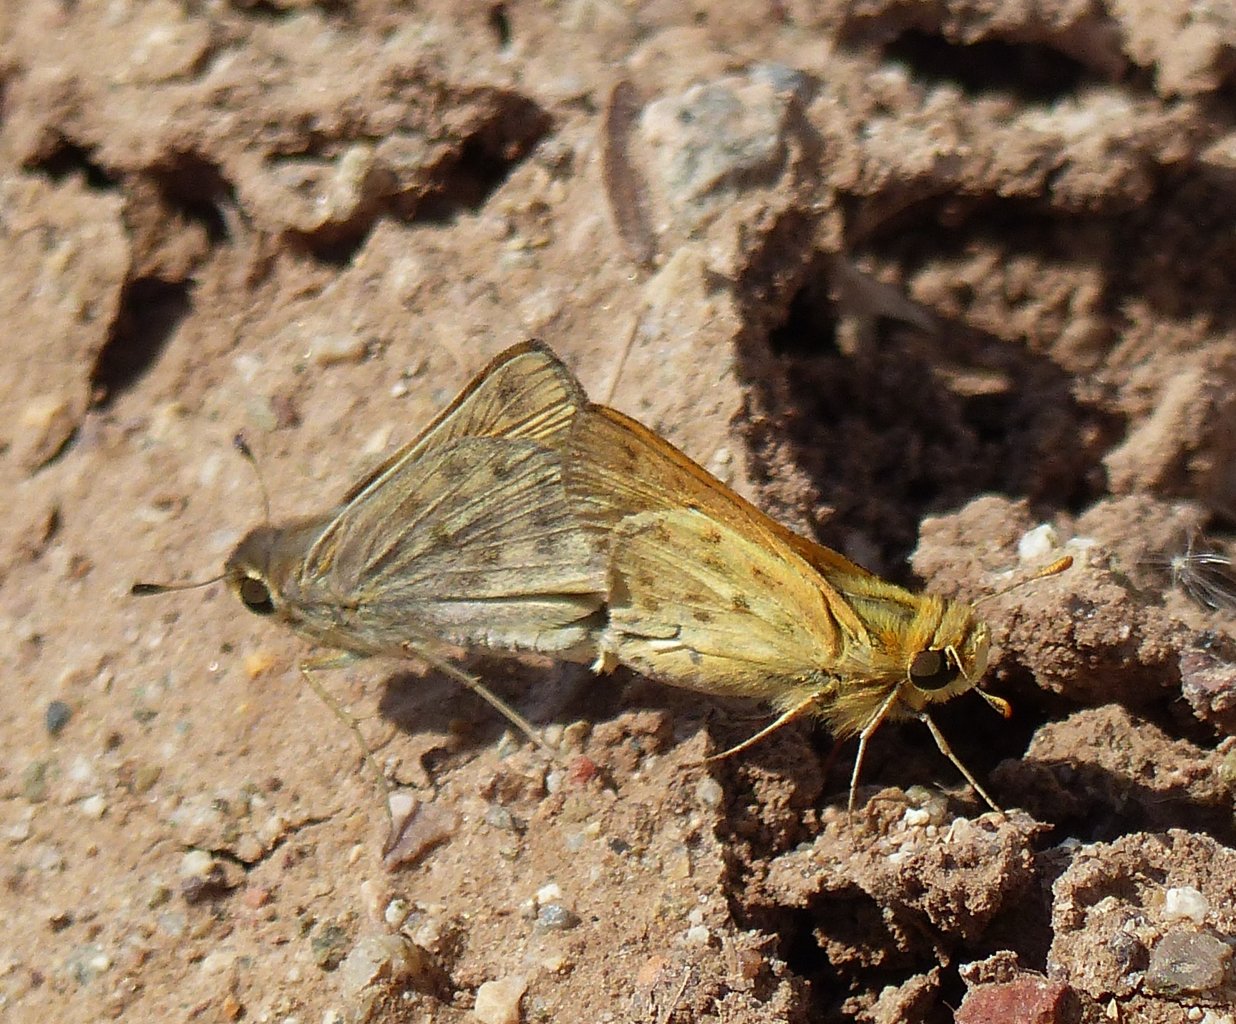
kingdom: Animalia
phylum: Arthropoda
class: Insecta
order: Lepidoptera
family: Hesperiidae
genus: Hylephila
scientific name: Hylephila phyleus
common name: Fiery Skipper
